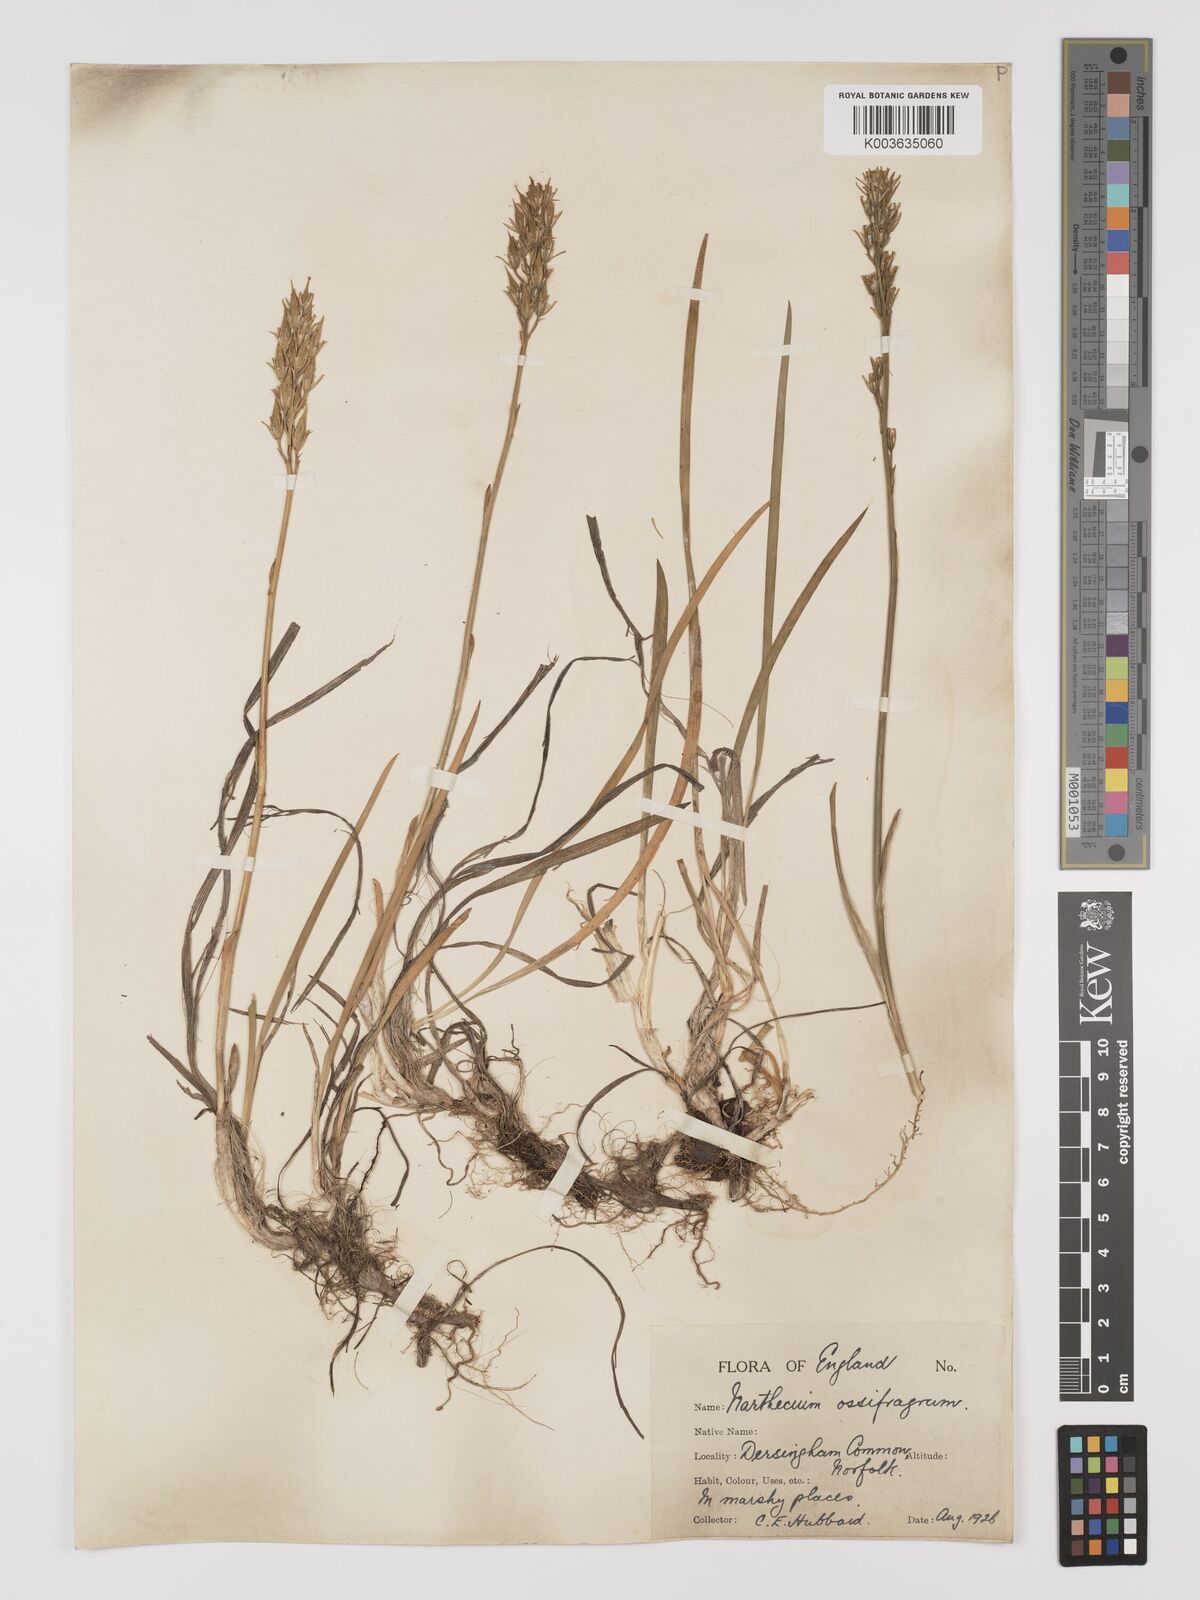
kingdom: Plantae
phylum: Tracheophyta
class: Liliopsida
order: Dioscoreales
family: Nartheciaceae
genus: Narthecium
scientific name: Narthecium
